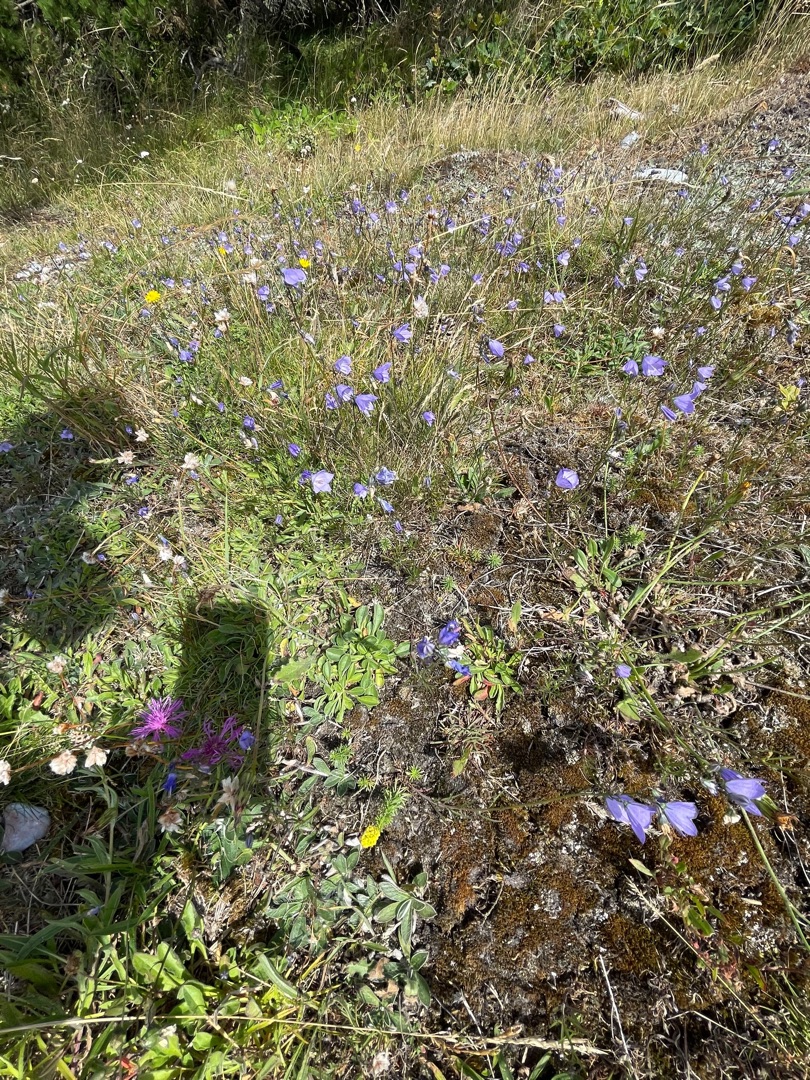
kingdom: Plantae
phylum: Tracheophyta
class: Magnoliopsida
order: Asterales
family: Campanulaceae
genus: Campanula
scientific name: Campanula rotundifolia
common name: Liden klokke
